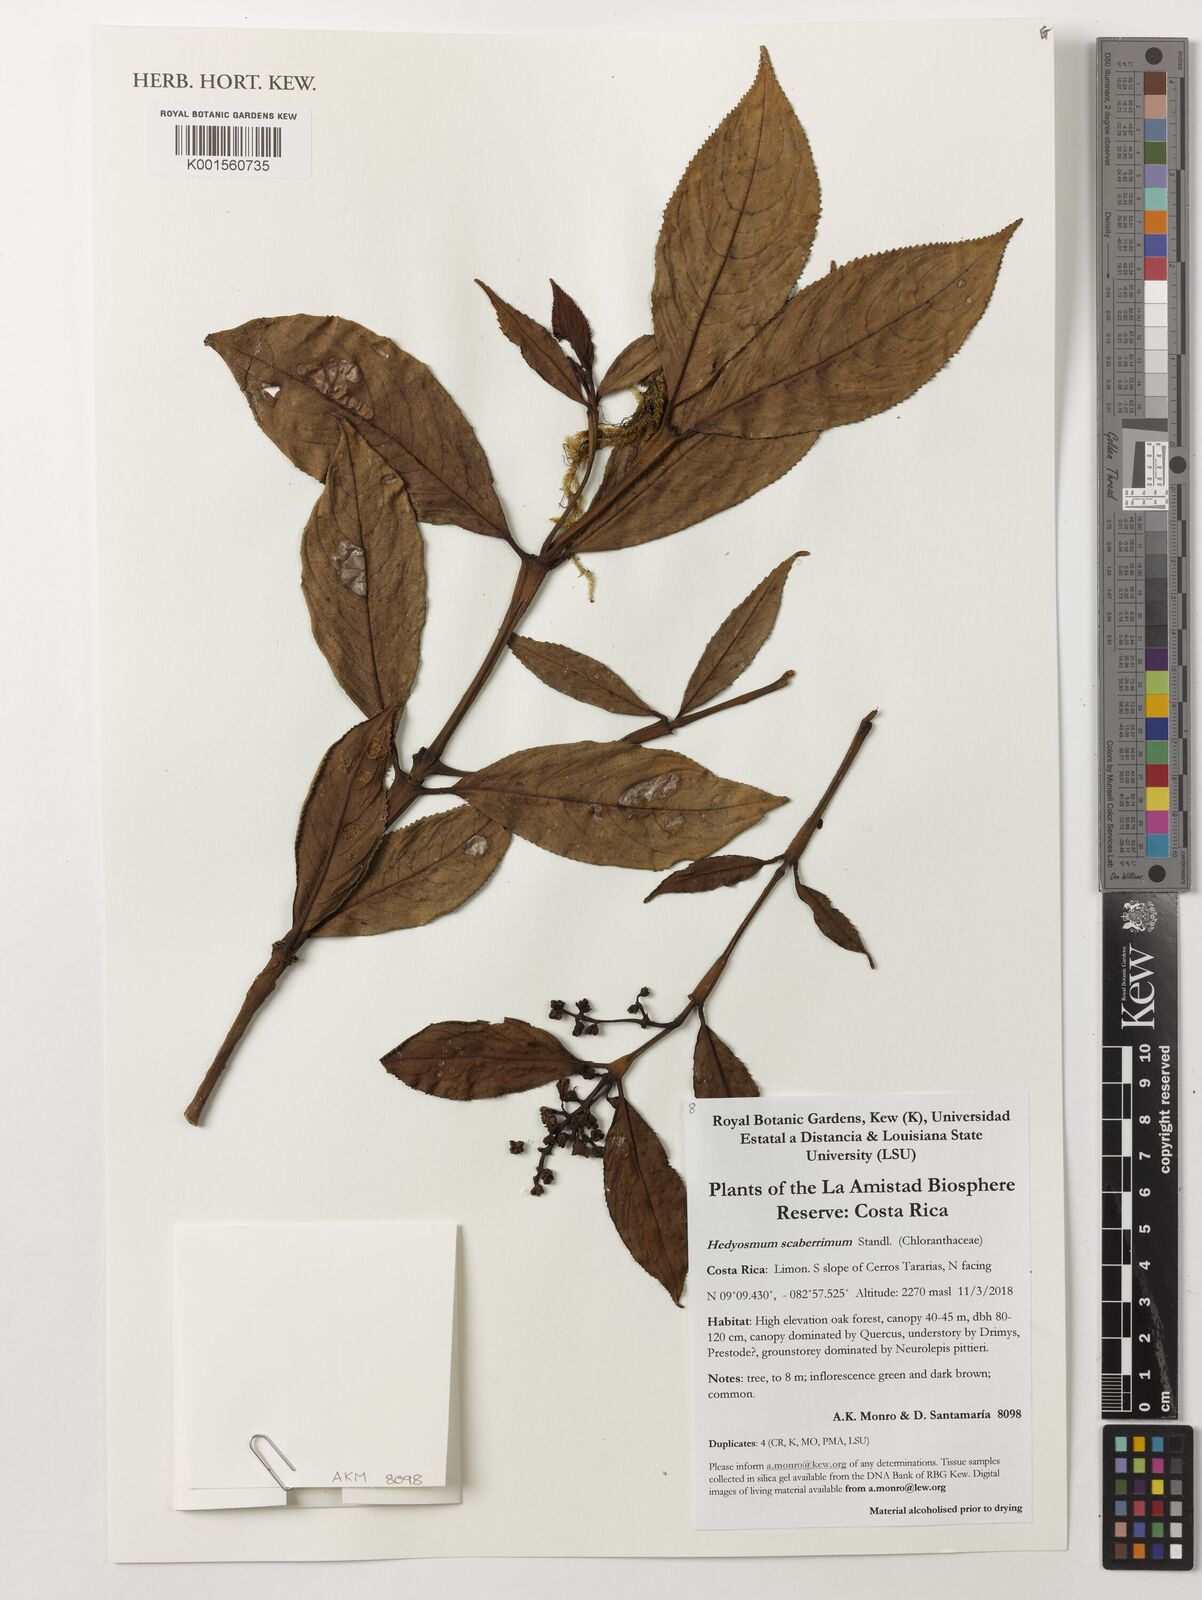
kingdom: Plantae
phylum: Tracheophyta
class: Magnoliopsida
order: Chloranthales
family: Chloranthaceae
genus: Hedyosmum
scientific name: Hedyosmum scaberrimum
